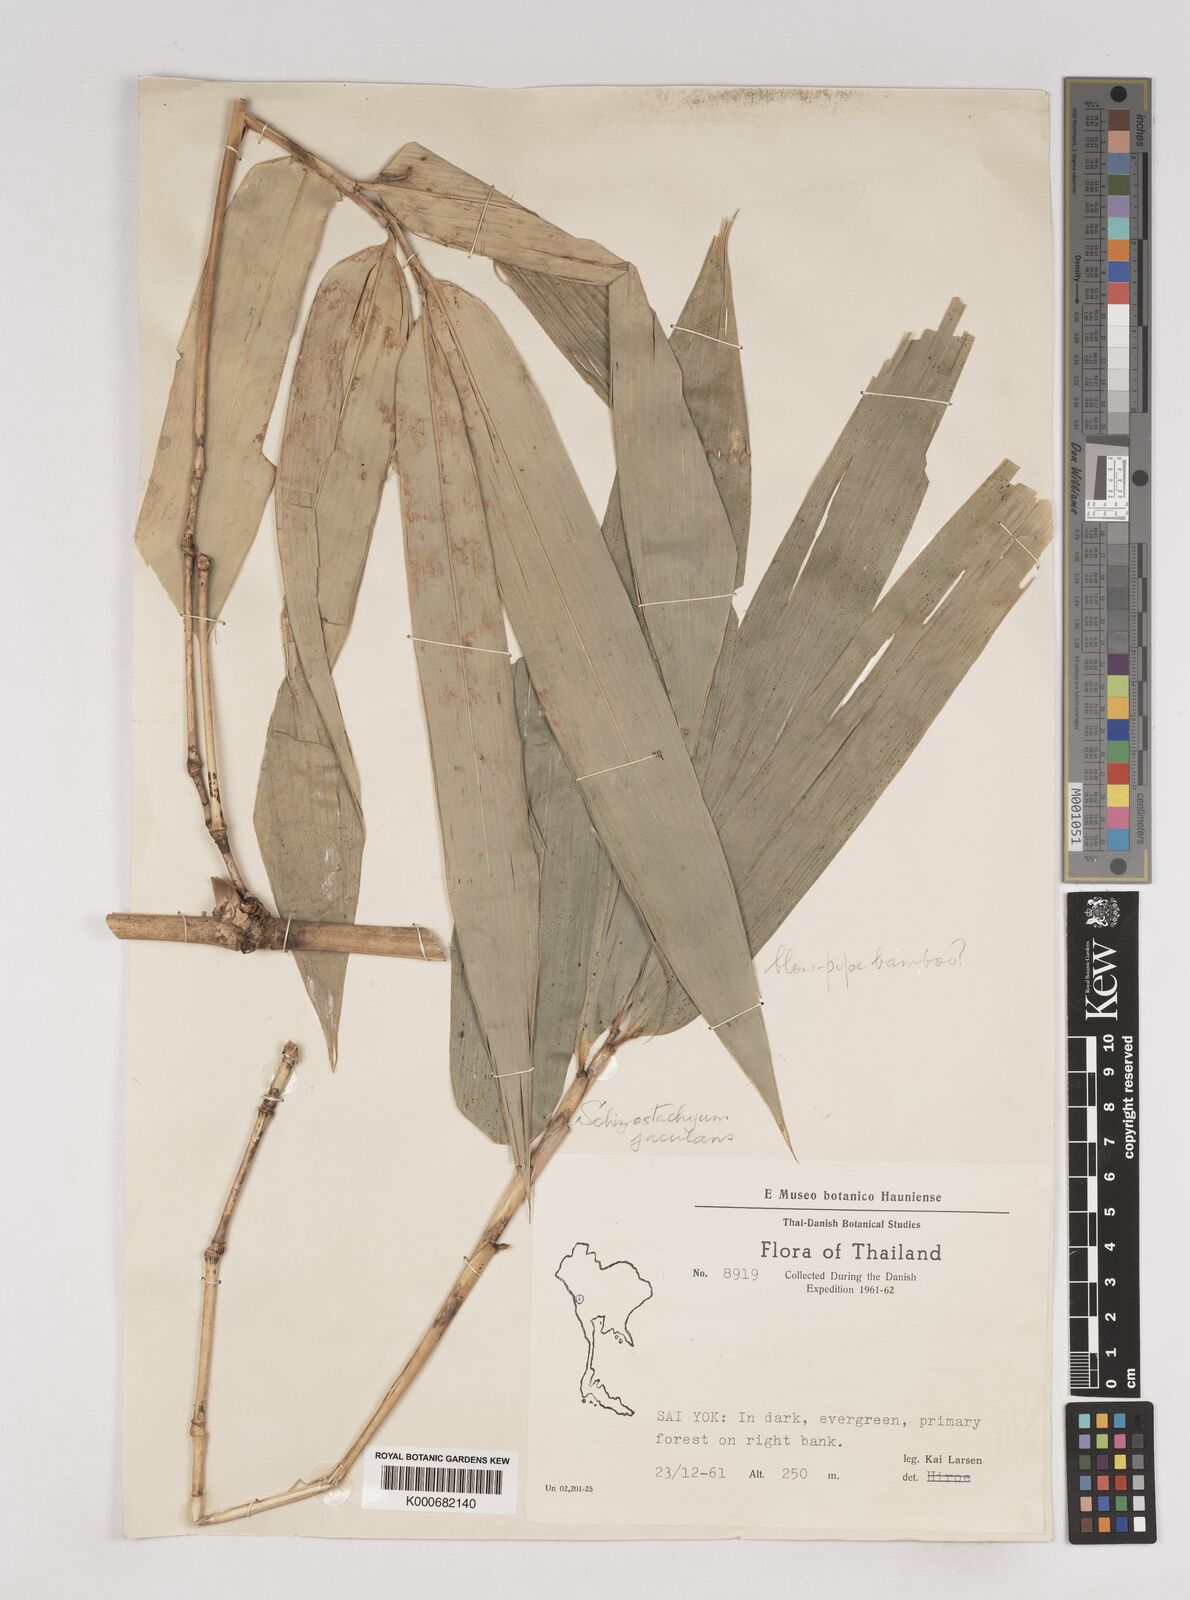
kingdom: Plantae
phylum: Tracheophyta
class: Liliopsida
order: Poales
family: Poaceae
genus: Schizostachyum
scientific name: Schizostachyum
